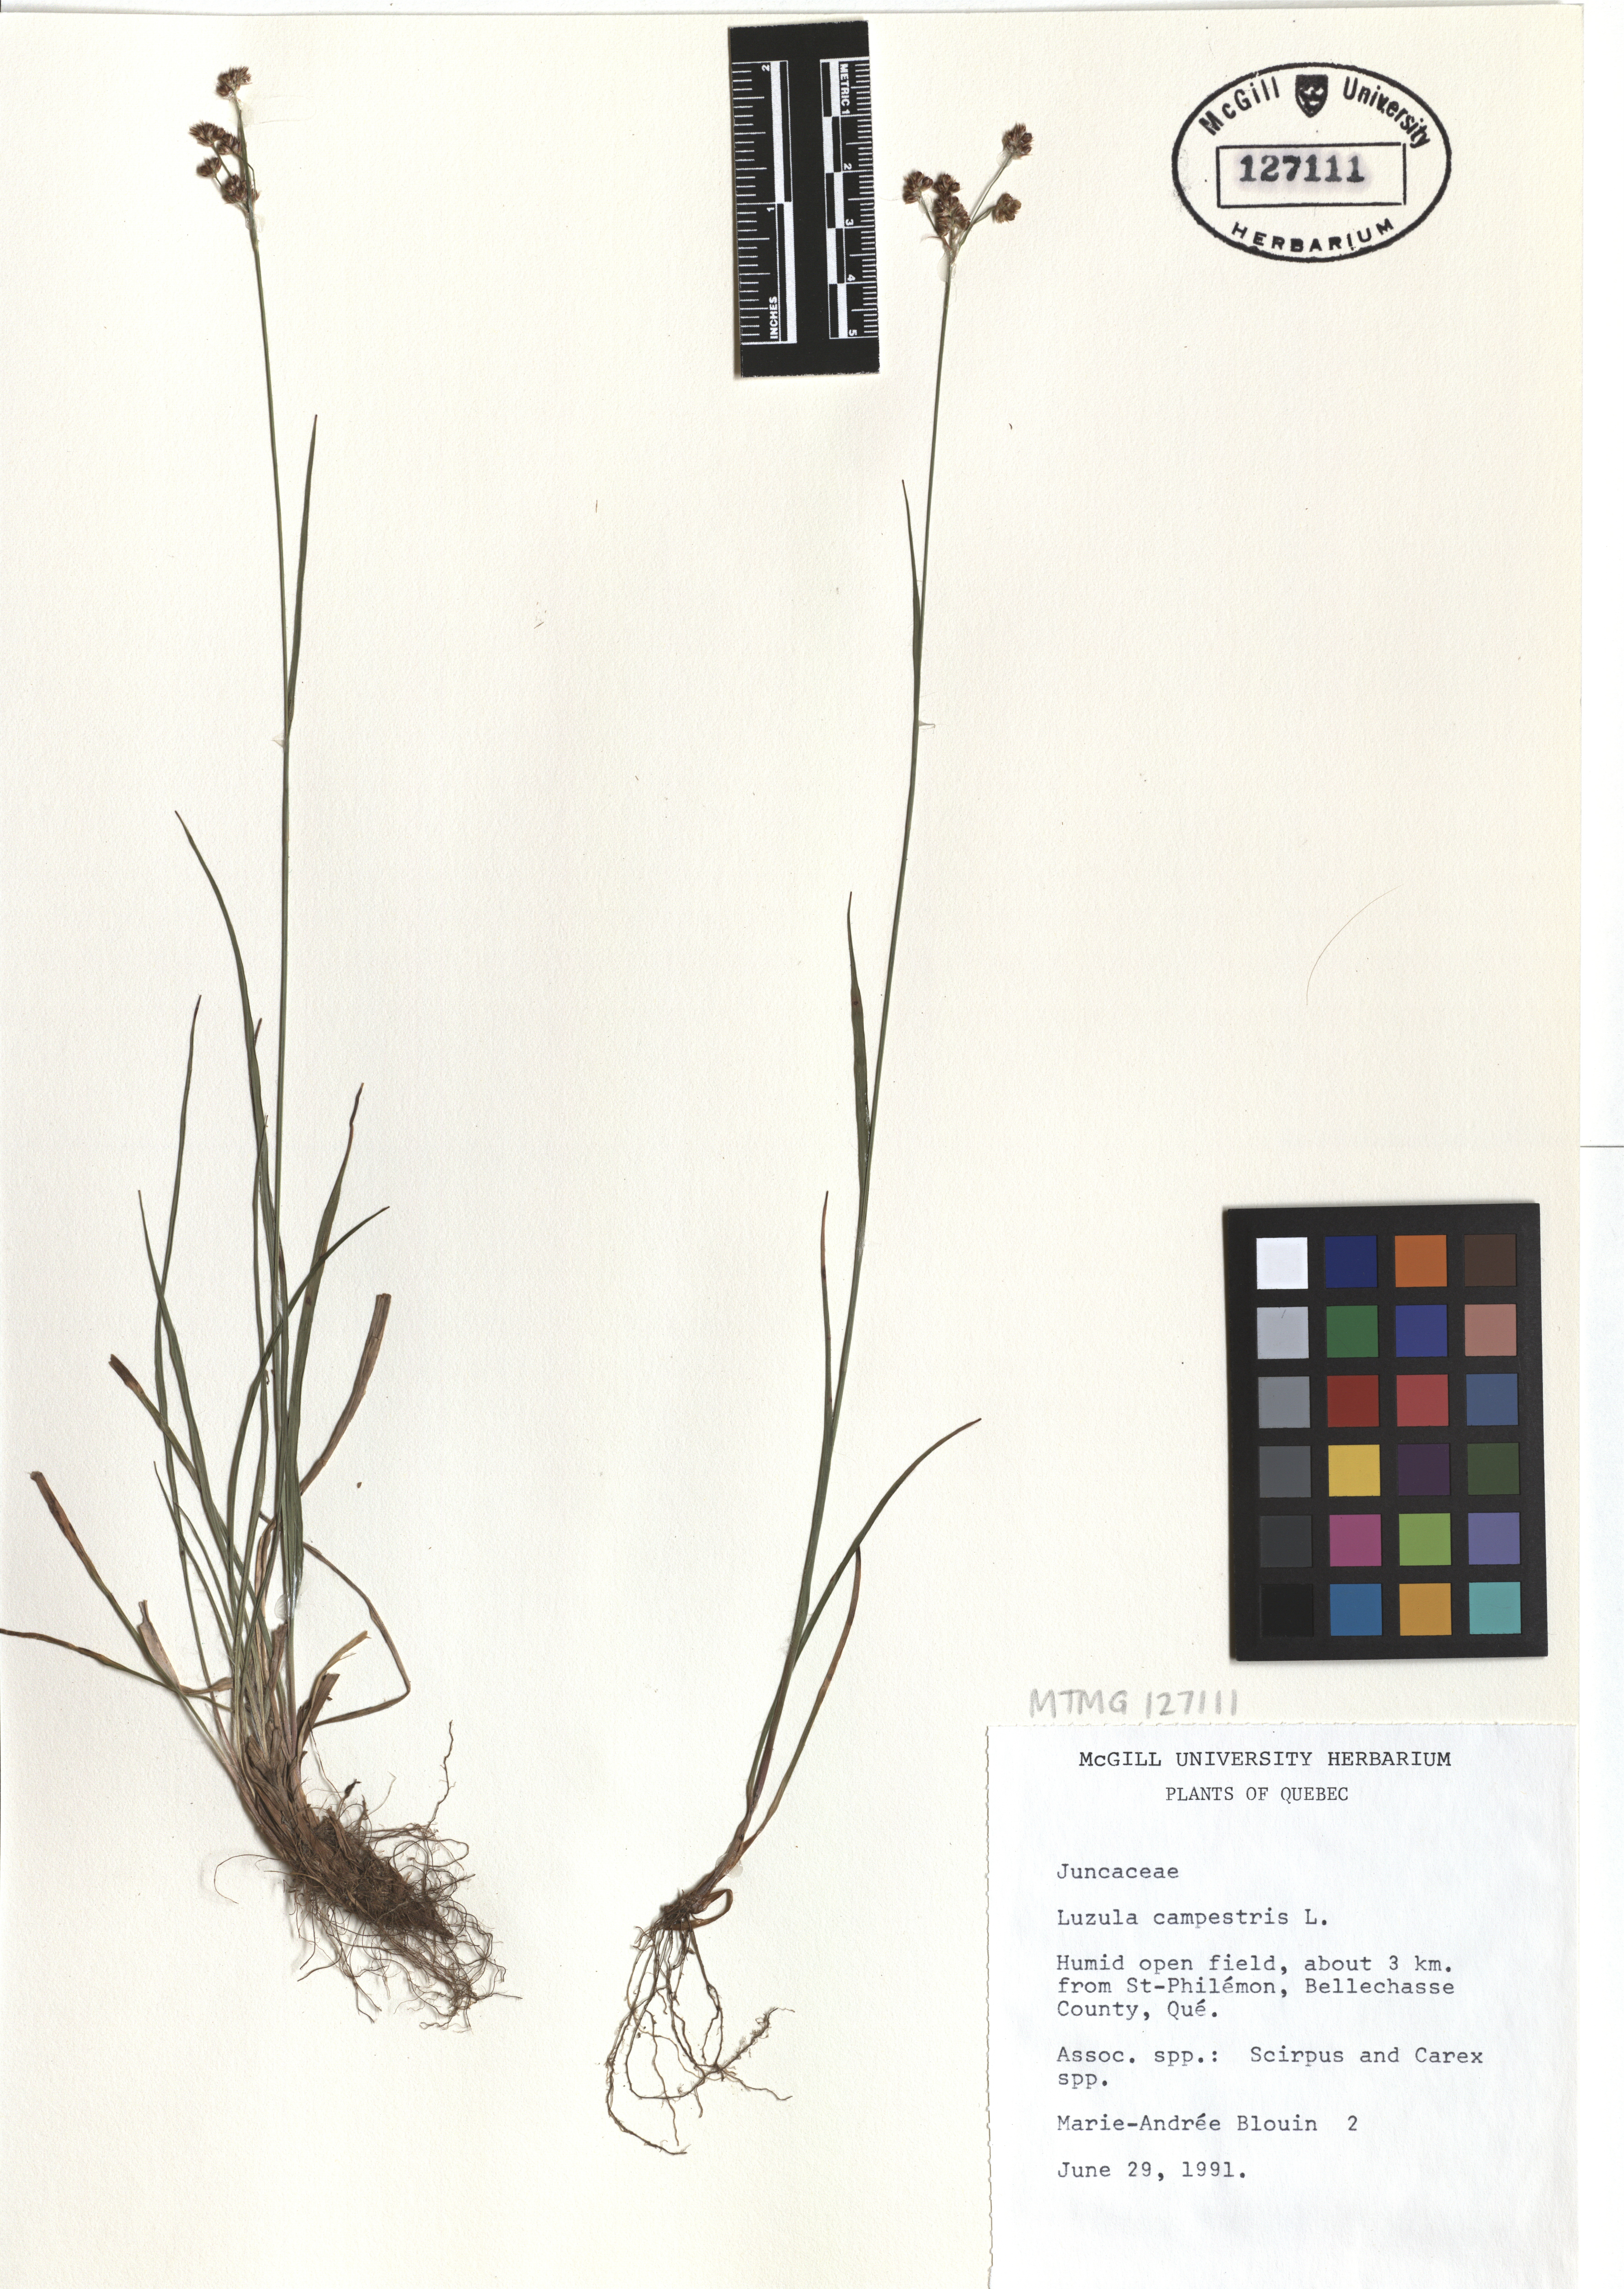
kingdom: Plantae
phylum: Tracheophyta
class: Liliopsida
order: Poales
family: Juncaceae
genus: Luzula
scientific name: Luzula campestris
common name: Field wood-rush
